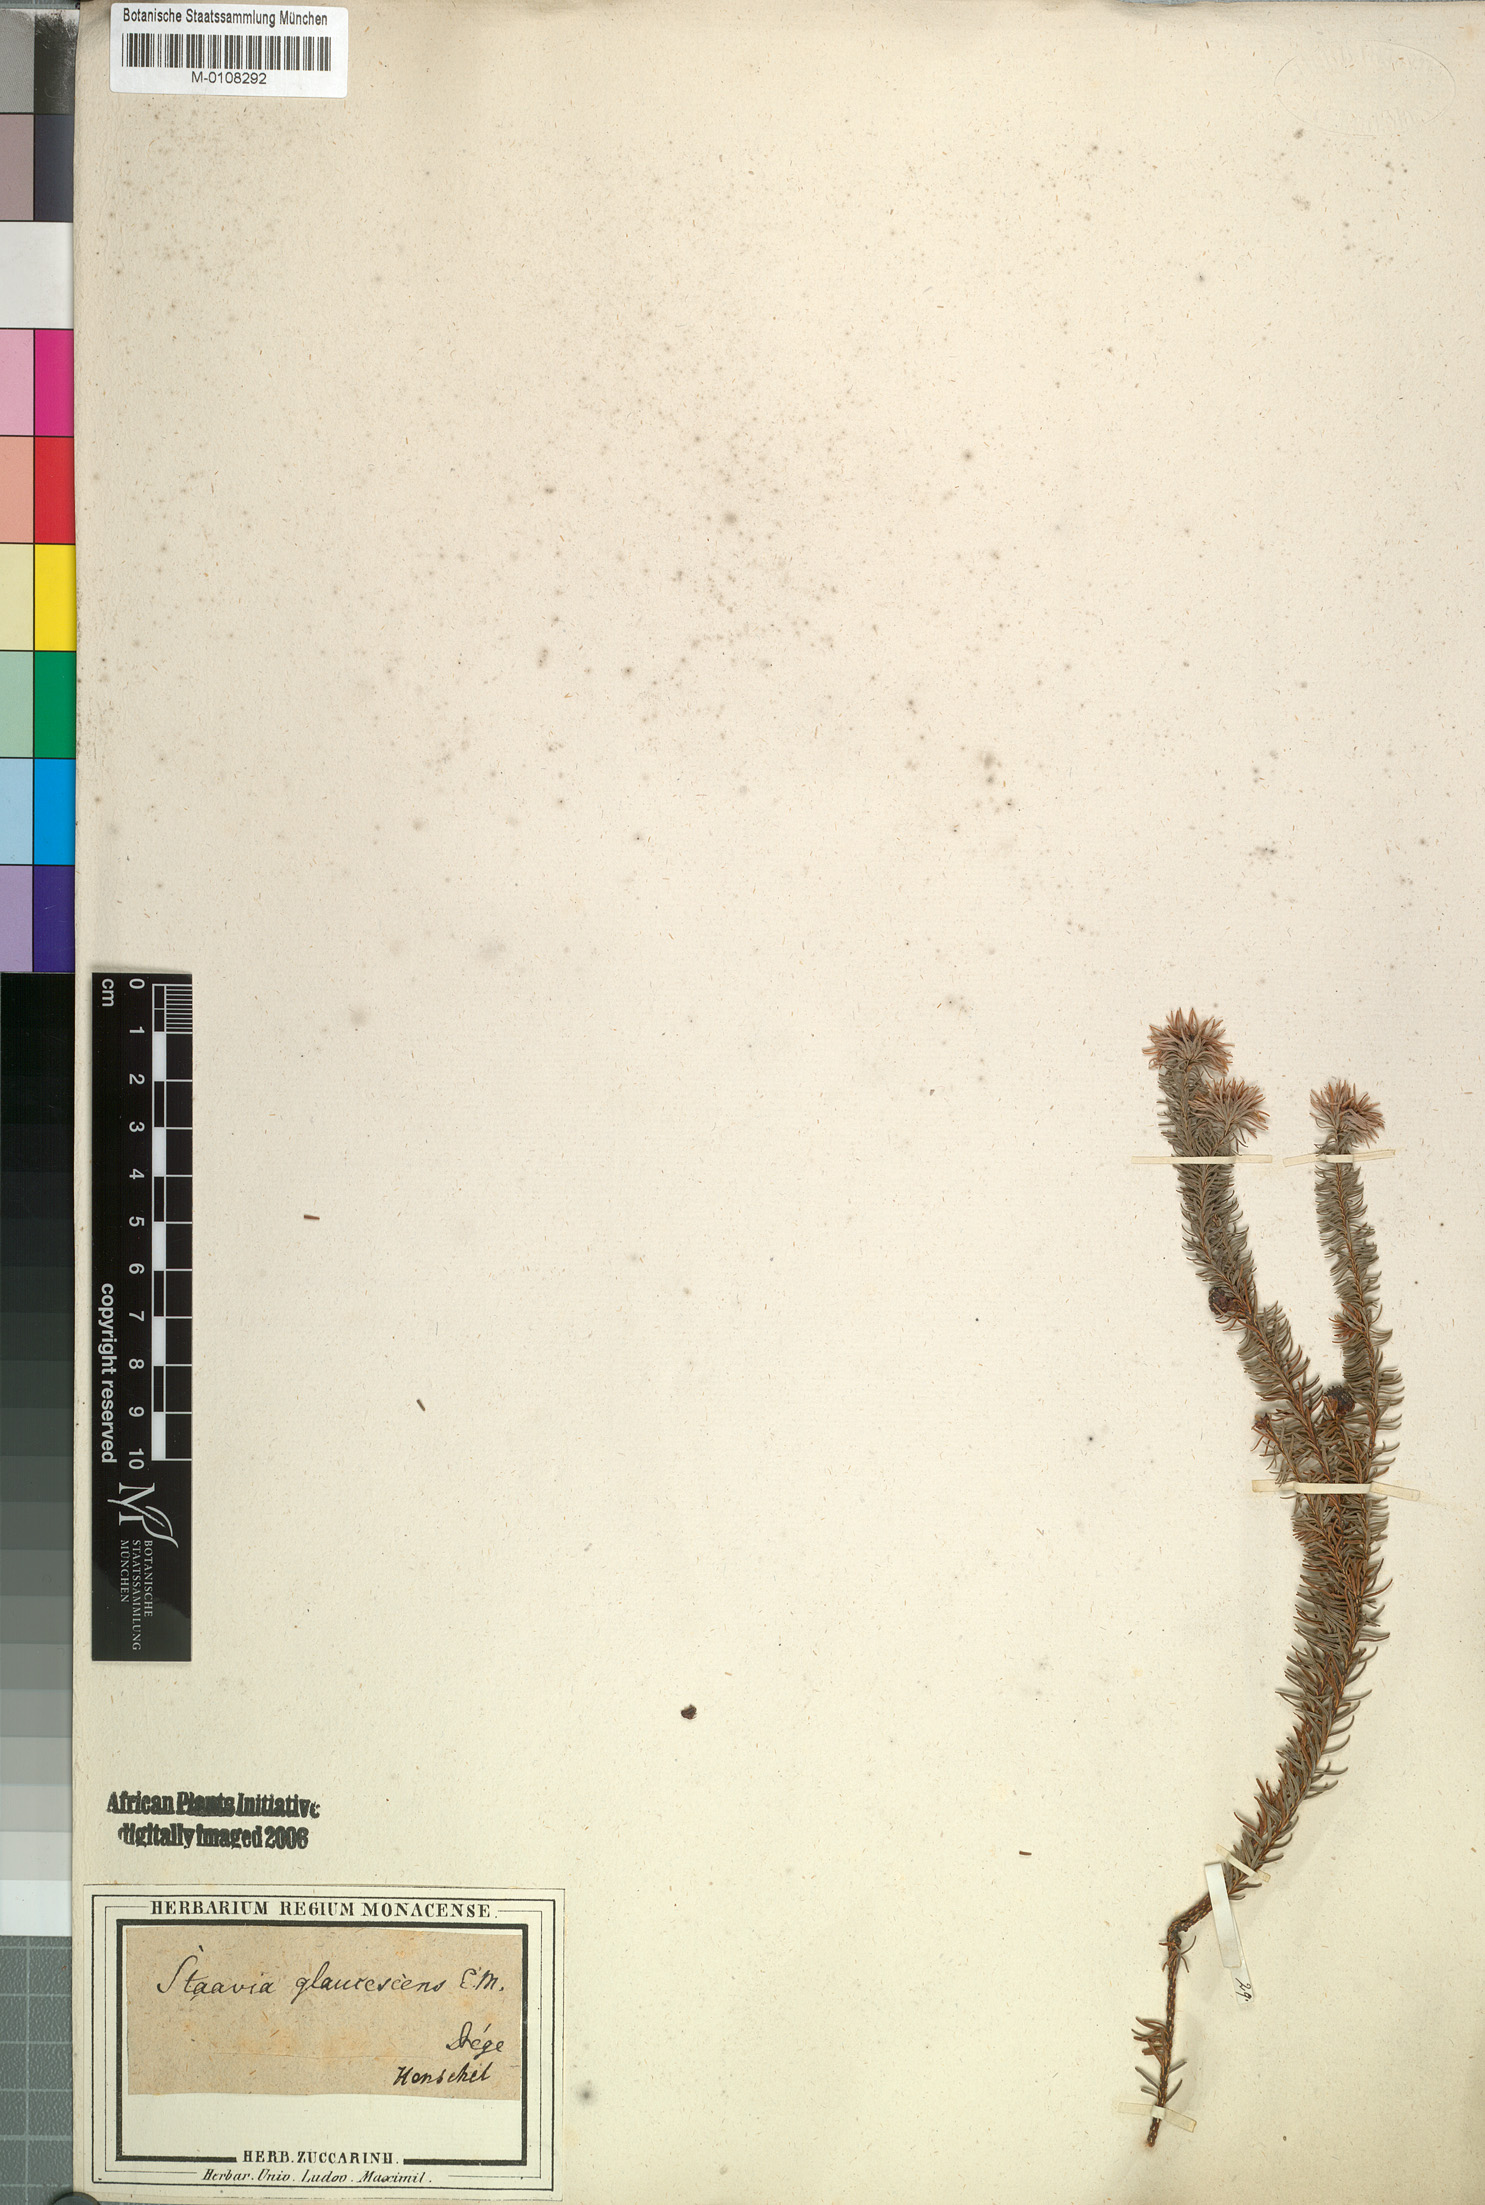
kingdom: Plantae
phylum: Tracheophyta
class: Magnoliopsida
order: Bruniales
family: Bruniaceae
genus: Staavia
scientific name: Staavia glutinosa
